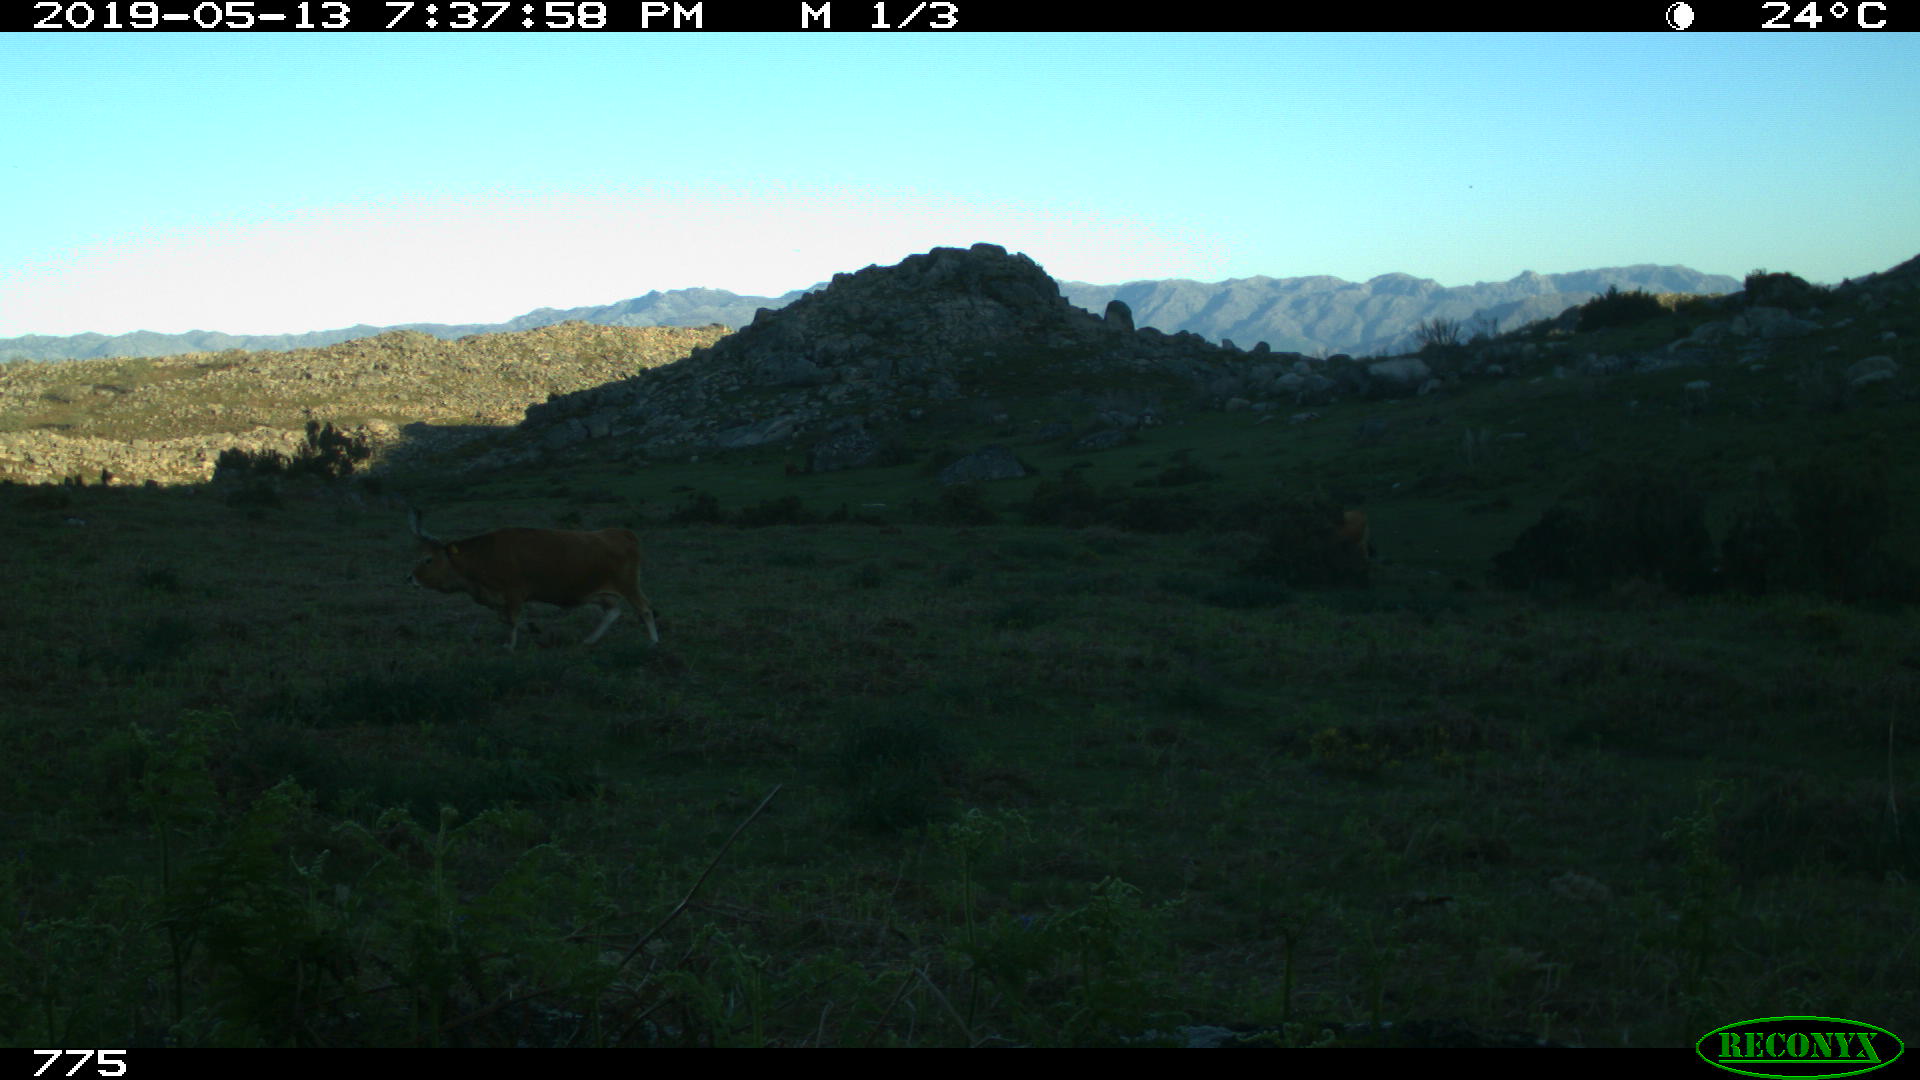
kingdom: Animalia
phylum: Chordata
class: Mammalia
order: Artiodactyla
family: Bovidae
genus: Bos
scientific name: Bos taurus
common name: Domesticated cattle
